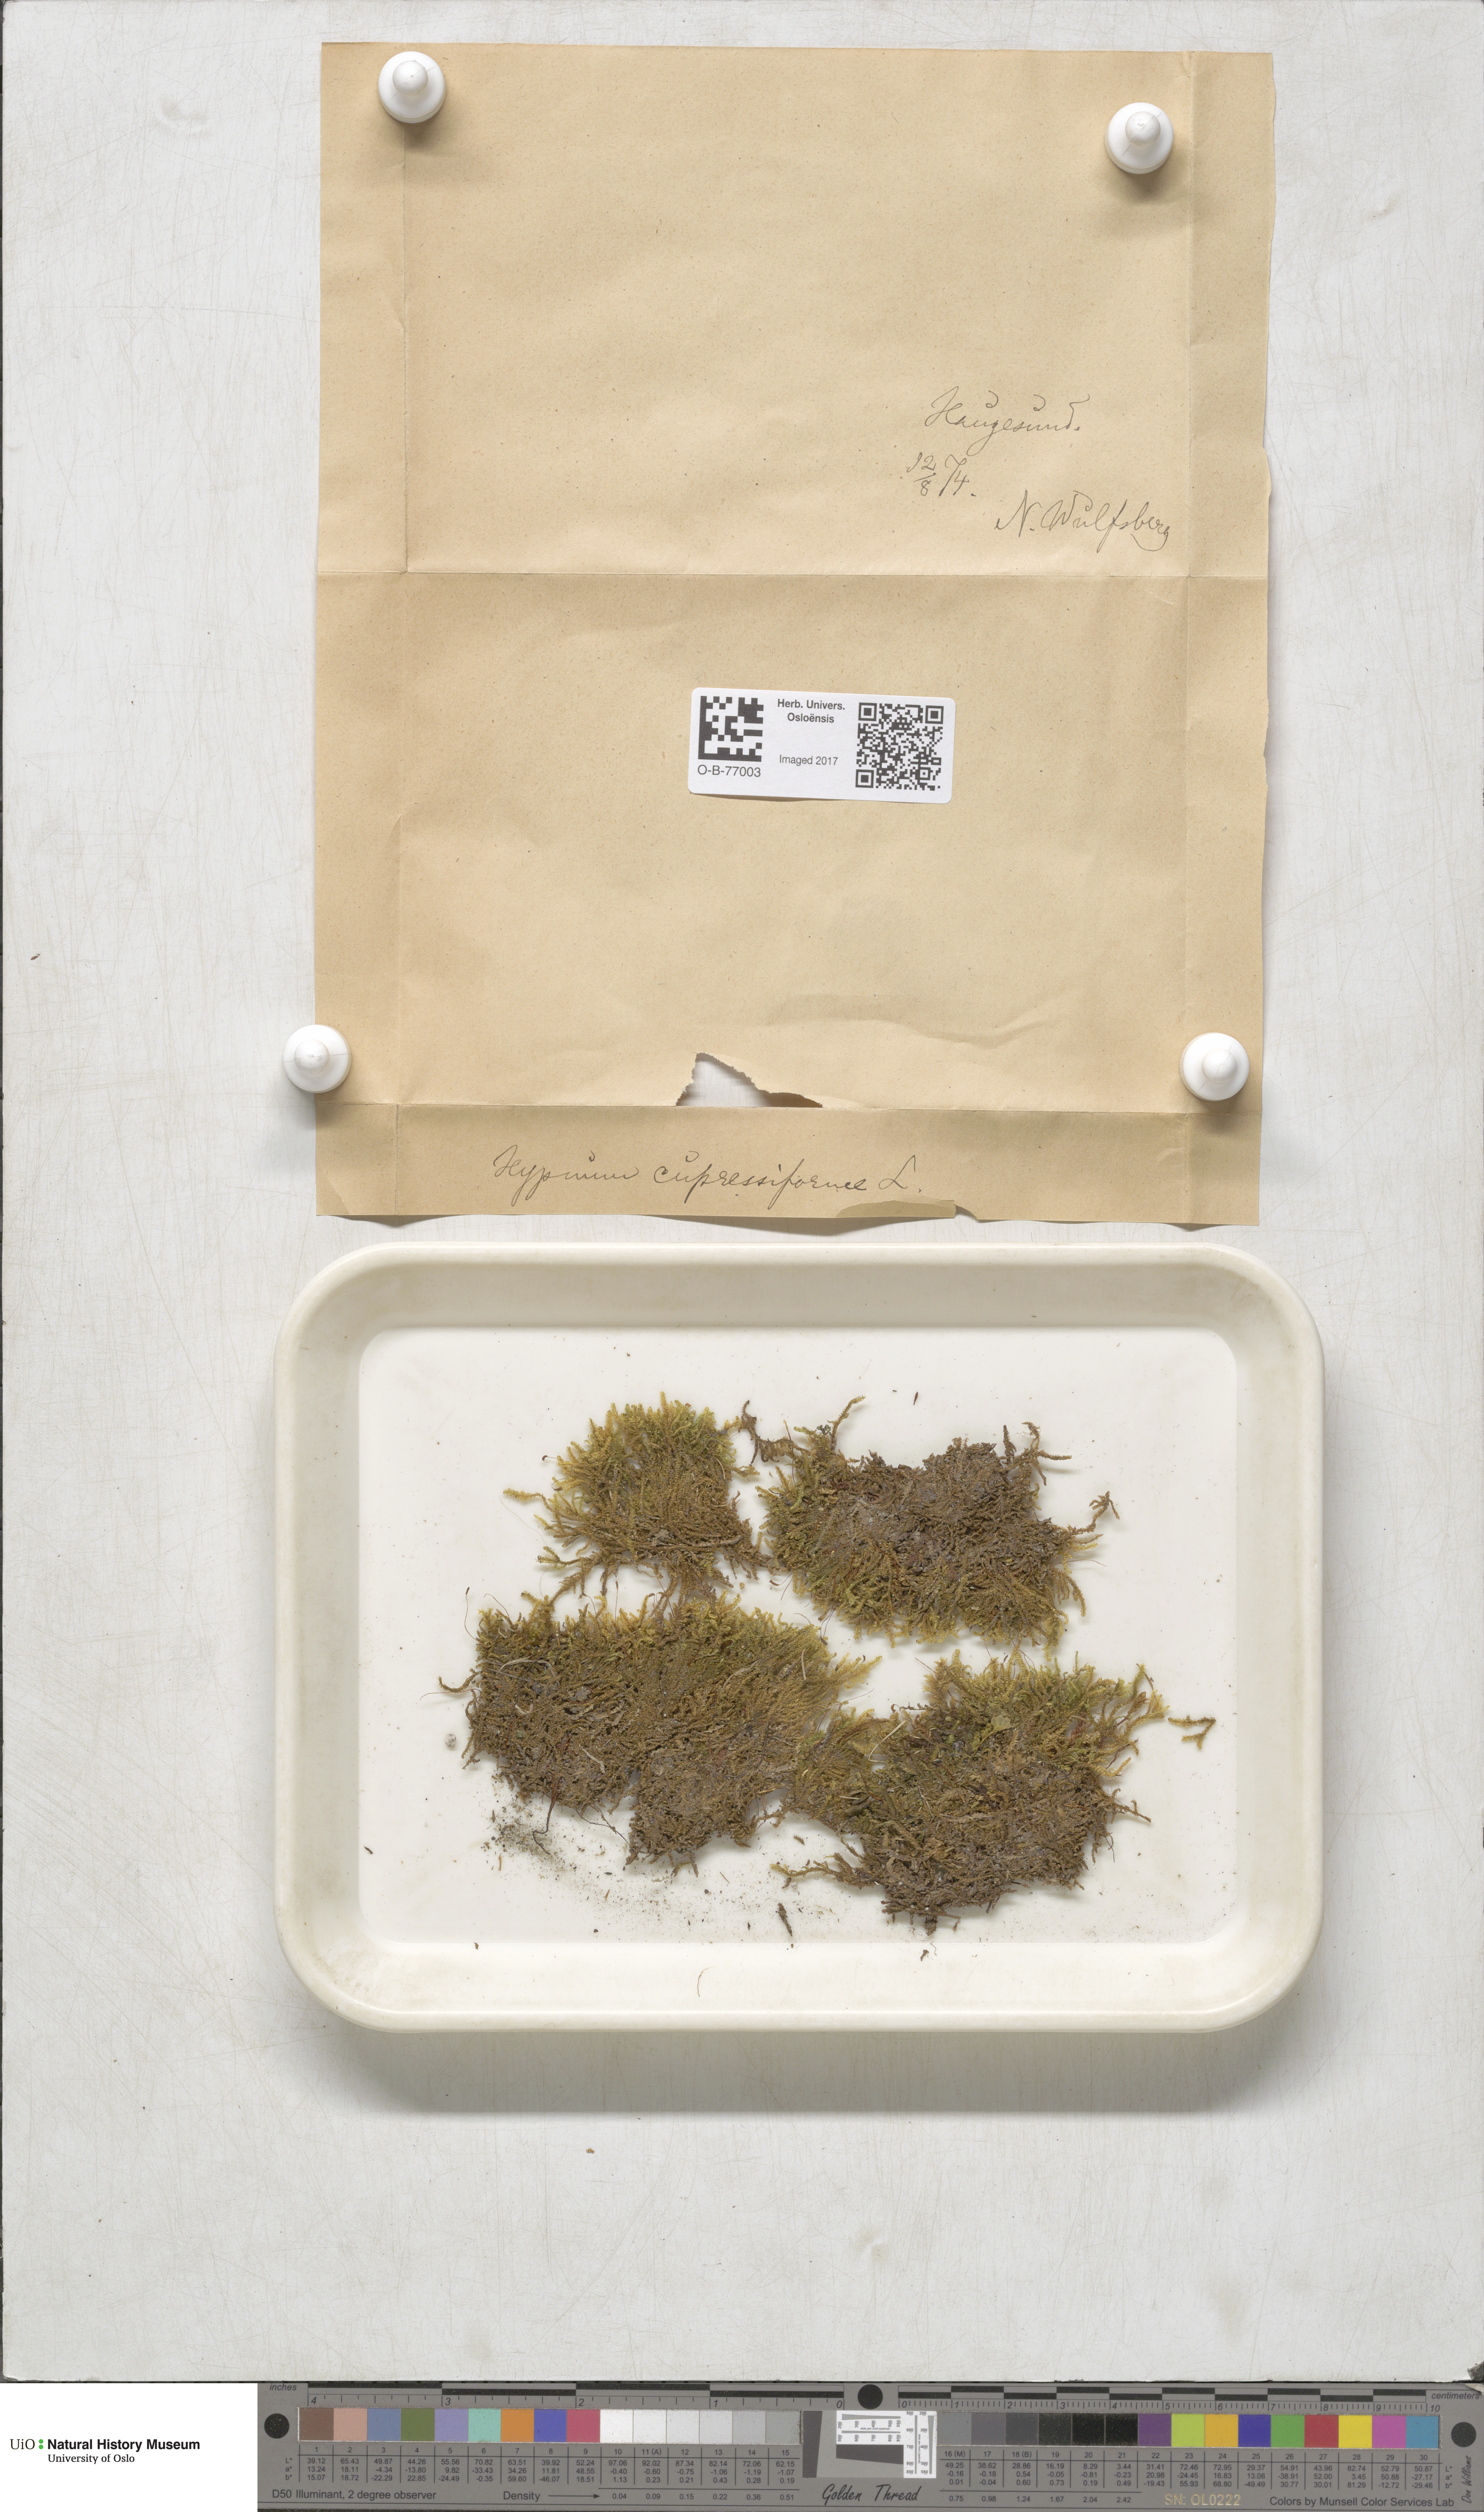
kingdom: Plantae
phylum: Bryophyta
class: Bryopsida
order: Hypnales
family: Hypnaceae
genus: Hypnum
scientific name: Hypnum cupressiforme
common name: Cypress-leaved plait-moss
